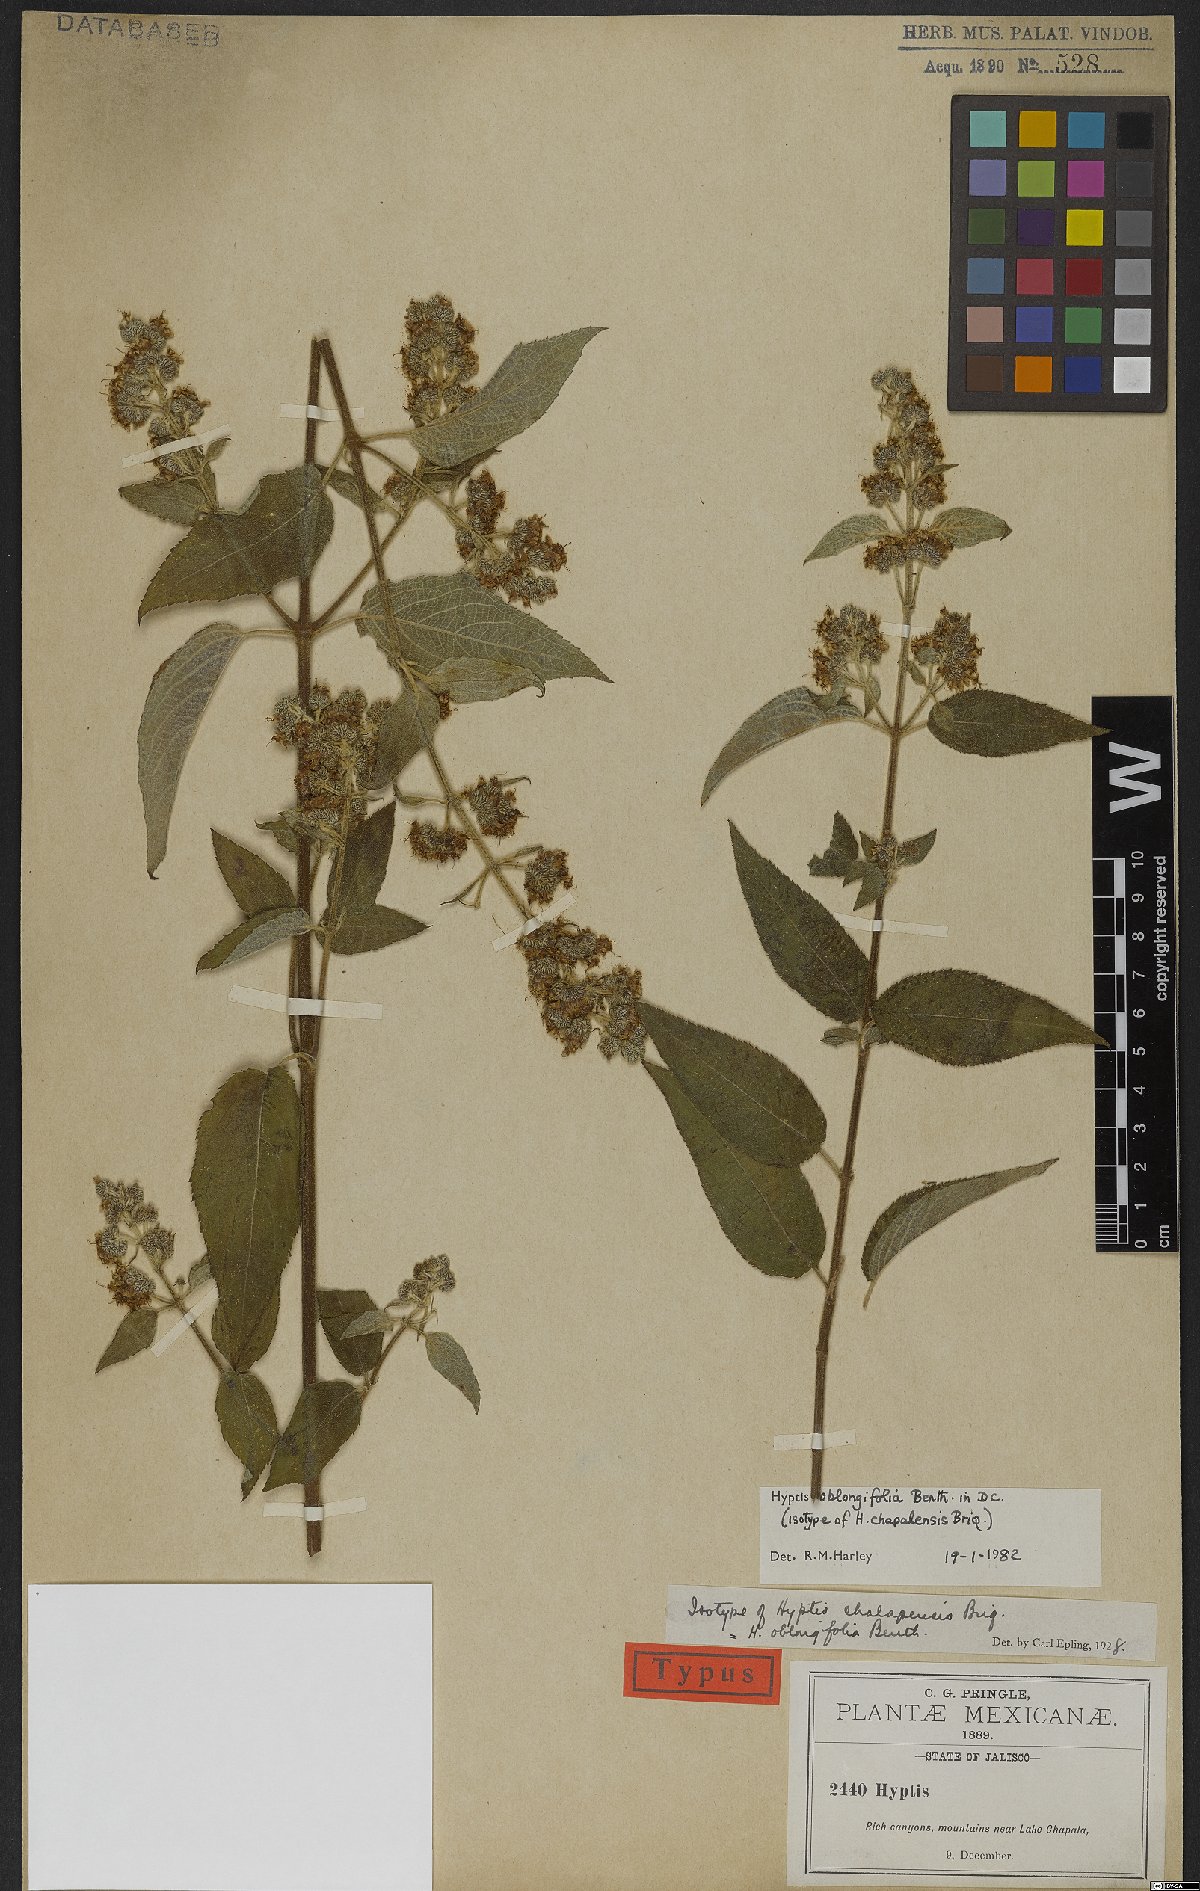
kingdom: Plantae
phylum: Tracheophyta
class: Magnoliopsida
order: Lamiales
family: Lamiaceae
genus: Mesosphaerum
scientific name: Mesosphaerum oblongifolium
